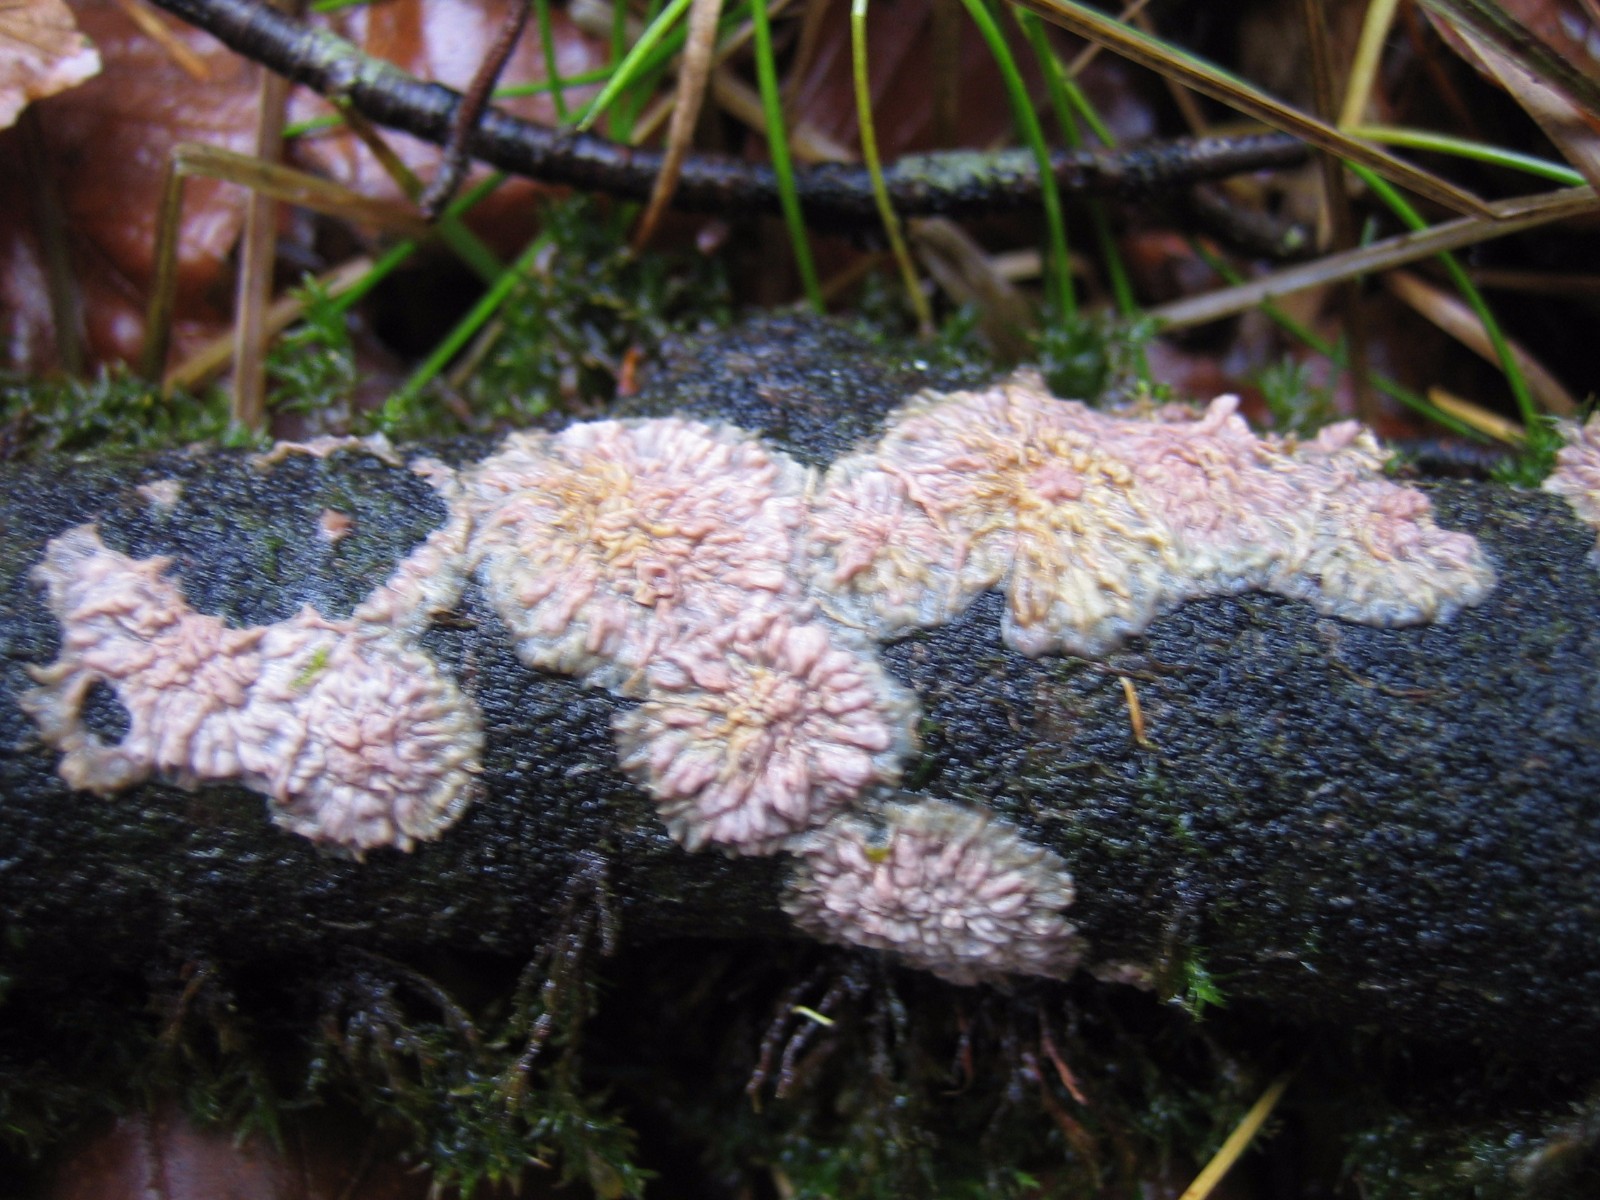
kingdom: Fungi
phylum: Basidiomycota
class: Agaricomycetes
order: Polyporales
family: Meruliaceae
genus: Phlebia
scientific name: Phlebia radiata
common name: stråle-åresvamp
